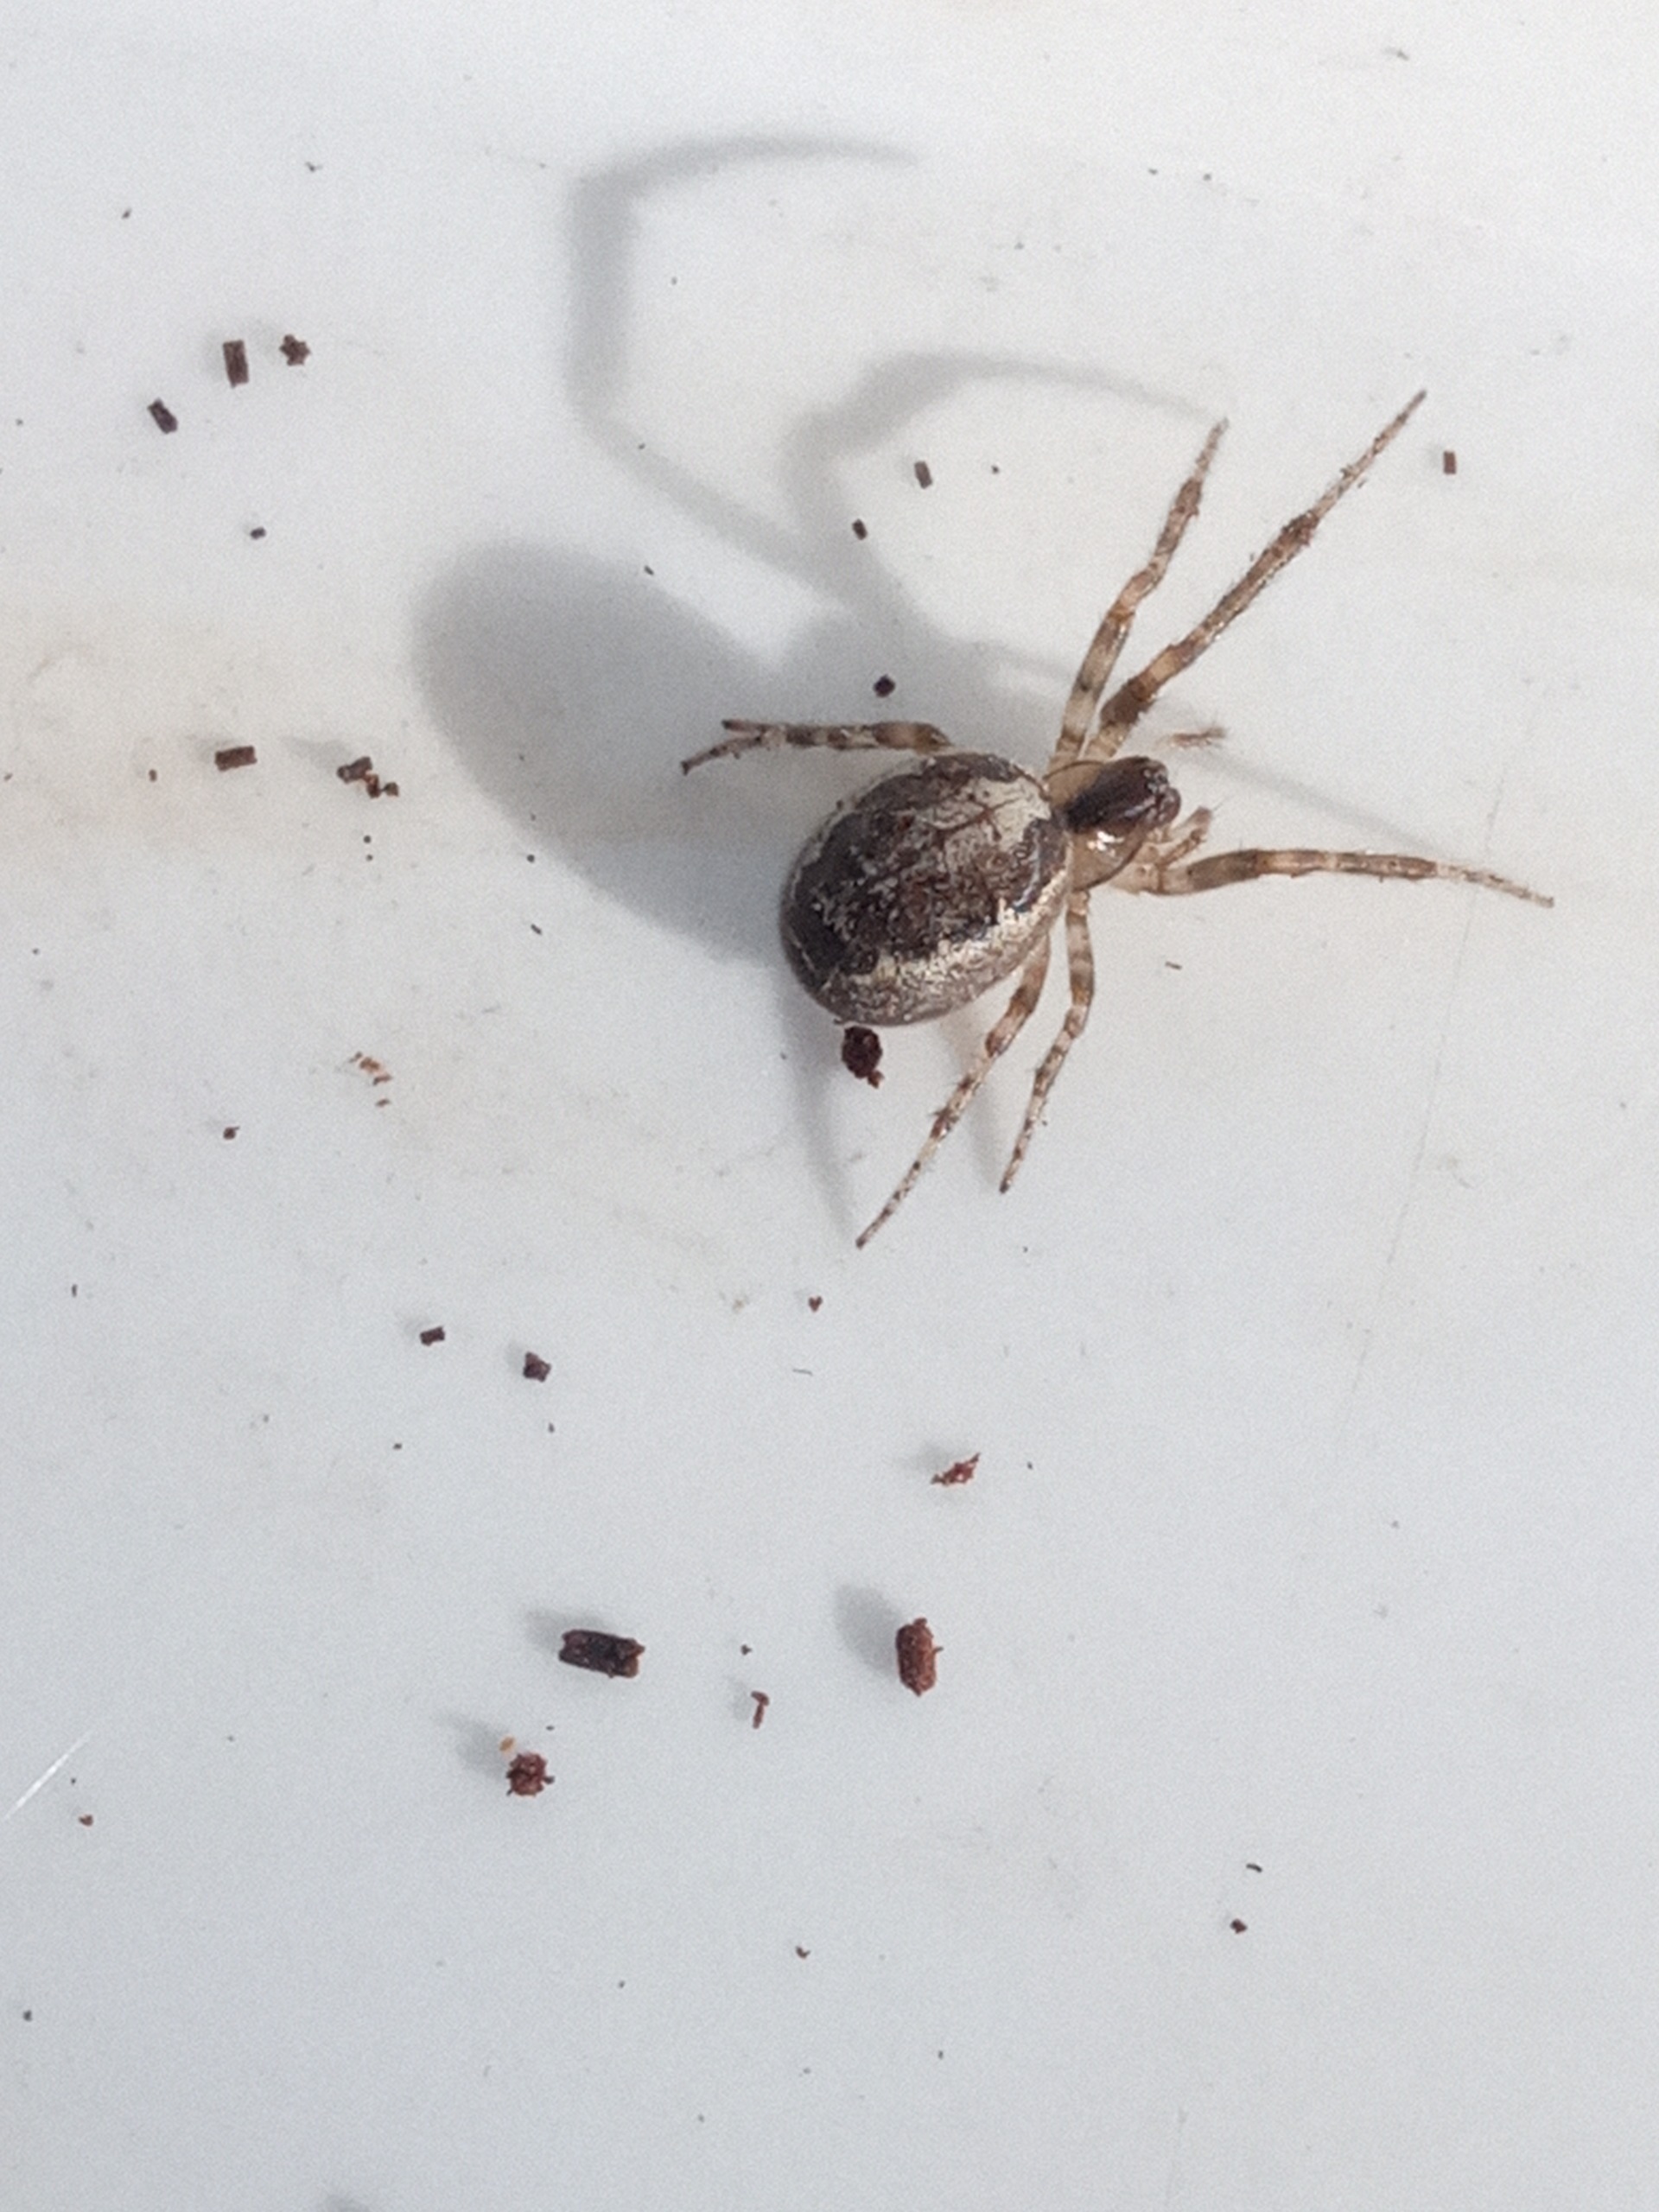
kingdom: Animalia
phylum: Arthropoda
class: Arachnida
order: Araneae
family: Araneidae
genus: Zygiella
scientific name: Zygiella x-notata
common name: Grå sektoredderkop
